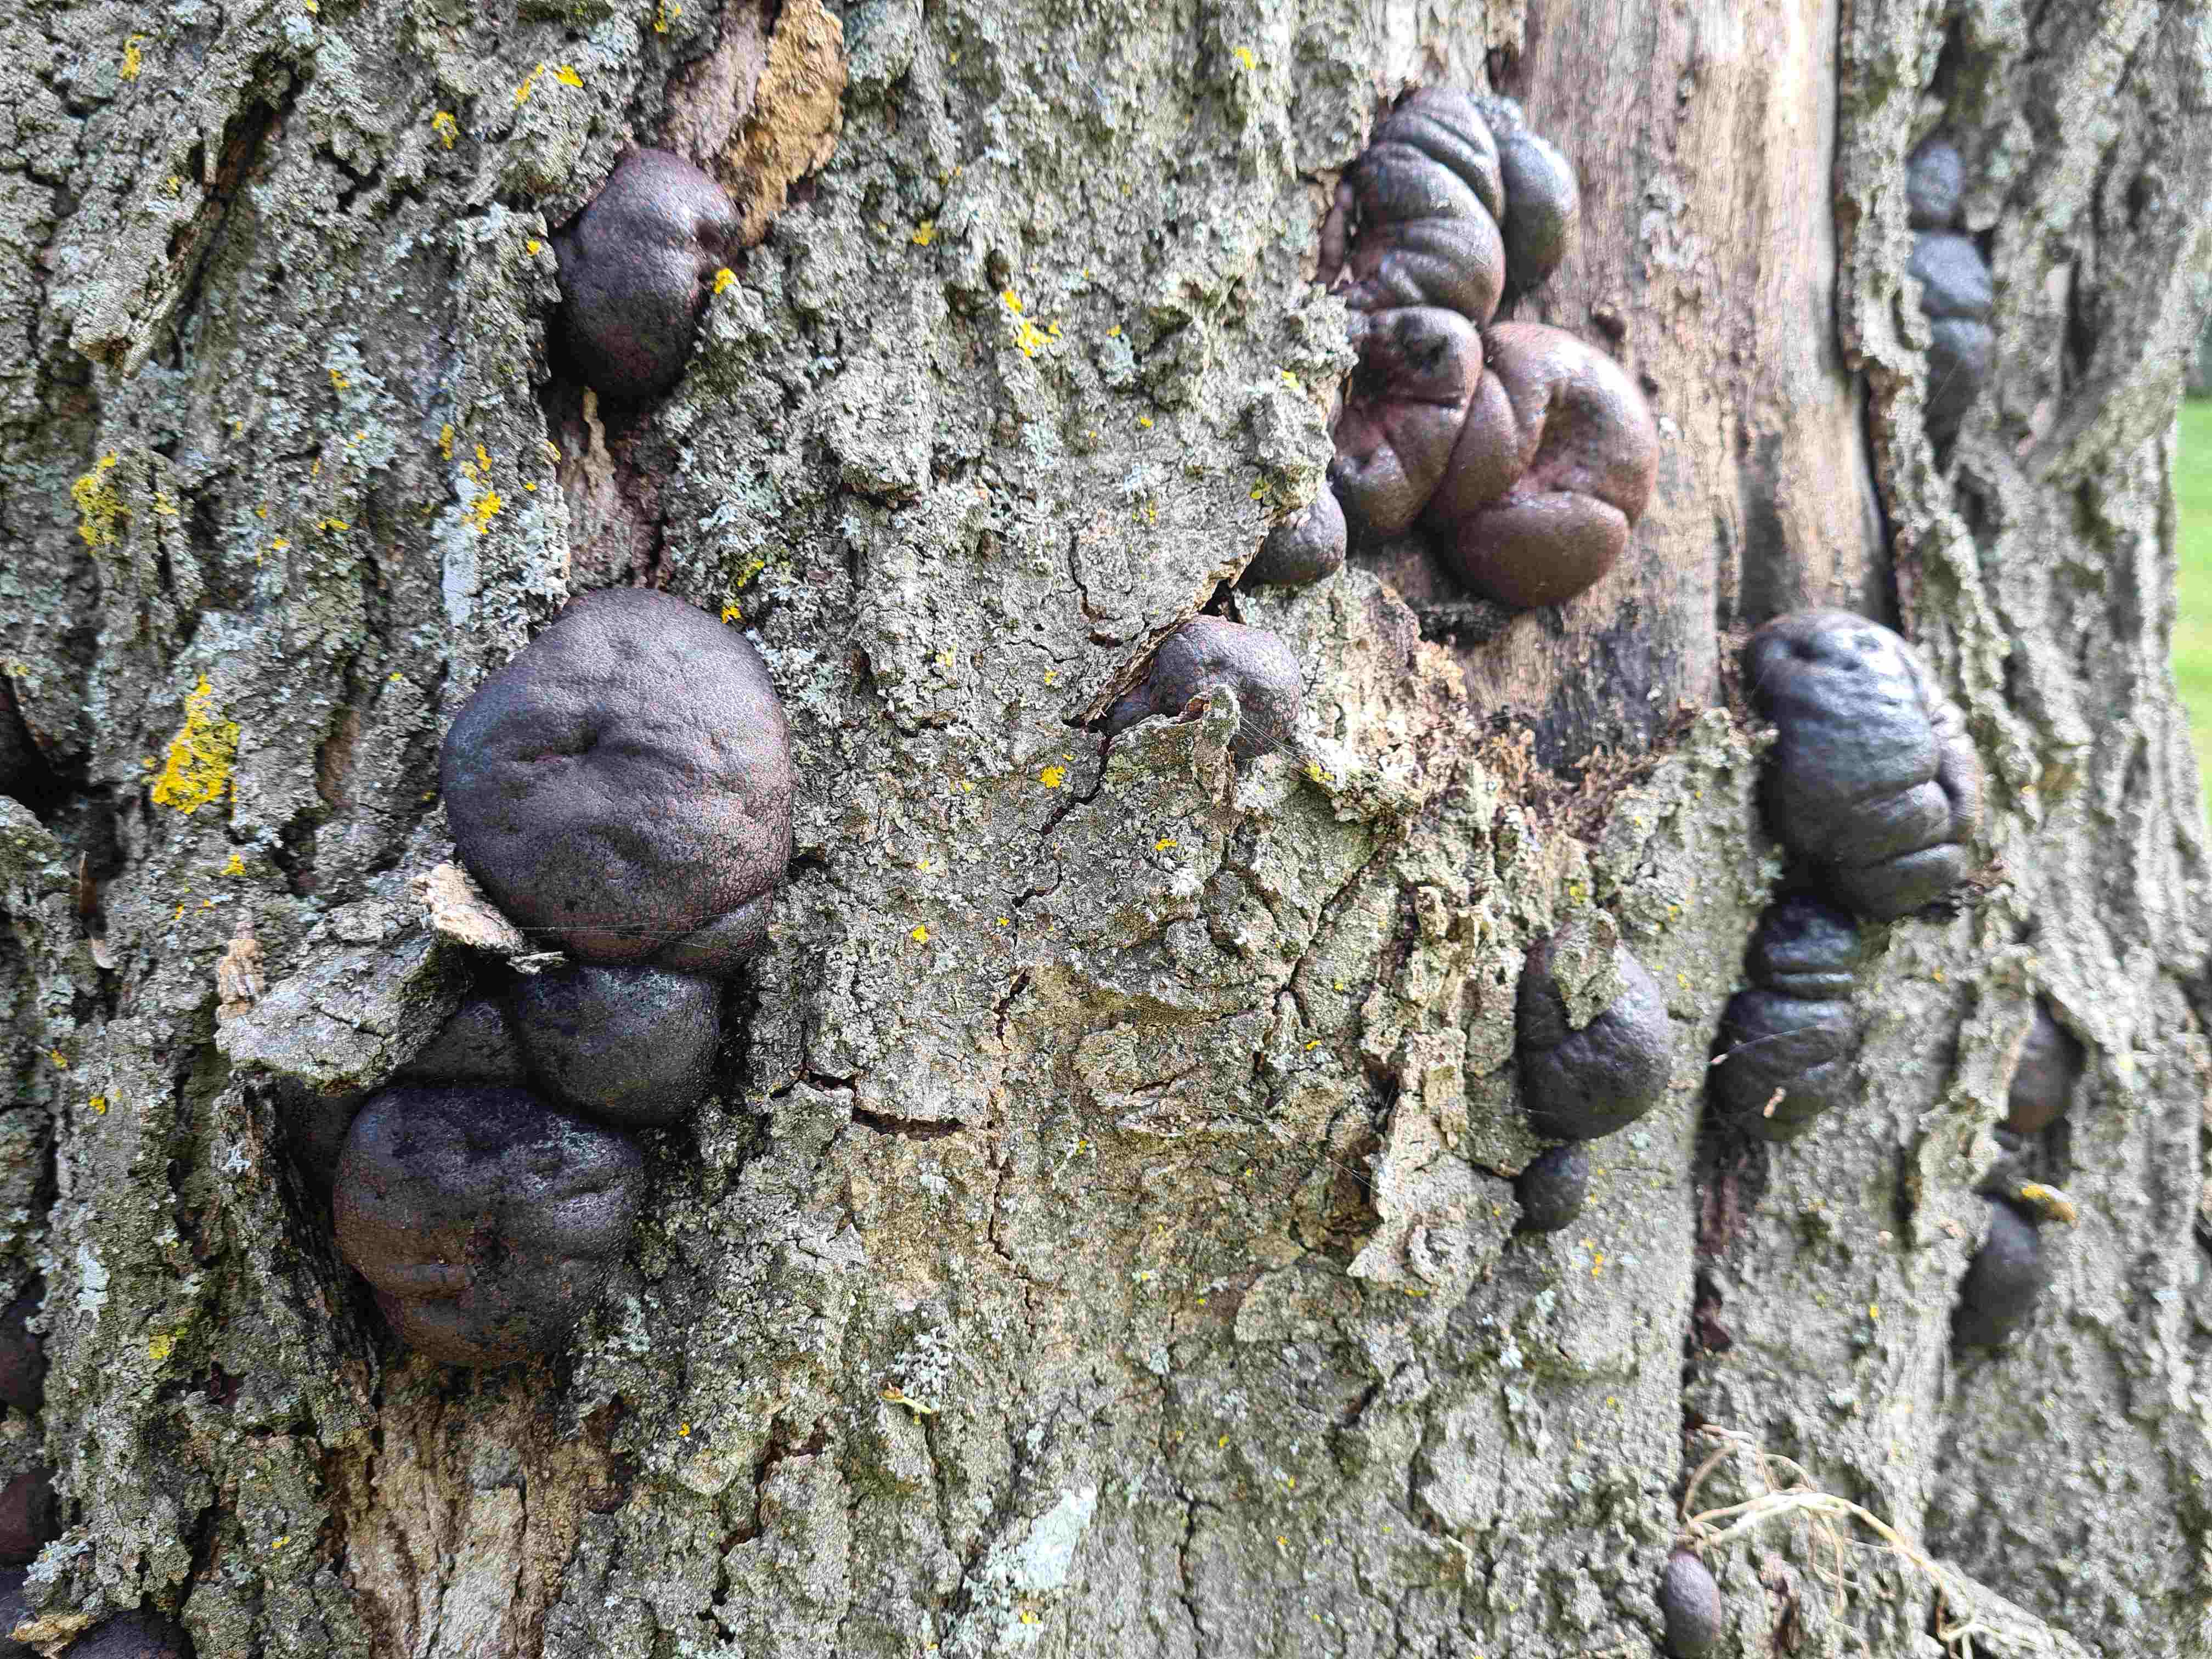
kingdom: Fungi
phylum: Ascomycota
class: Sordariomycetes
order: Xylariales
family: Hypoxylaceae
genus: Daldinia
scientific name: Daldinia concentrica
